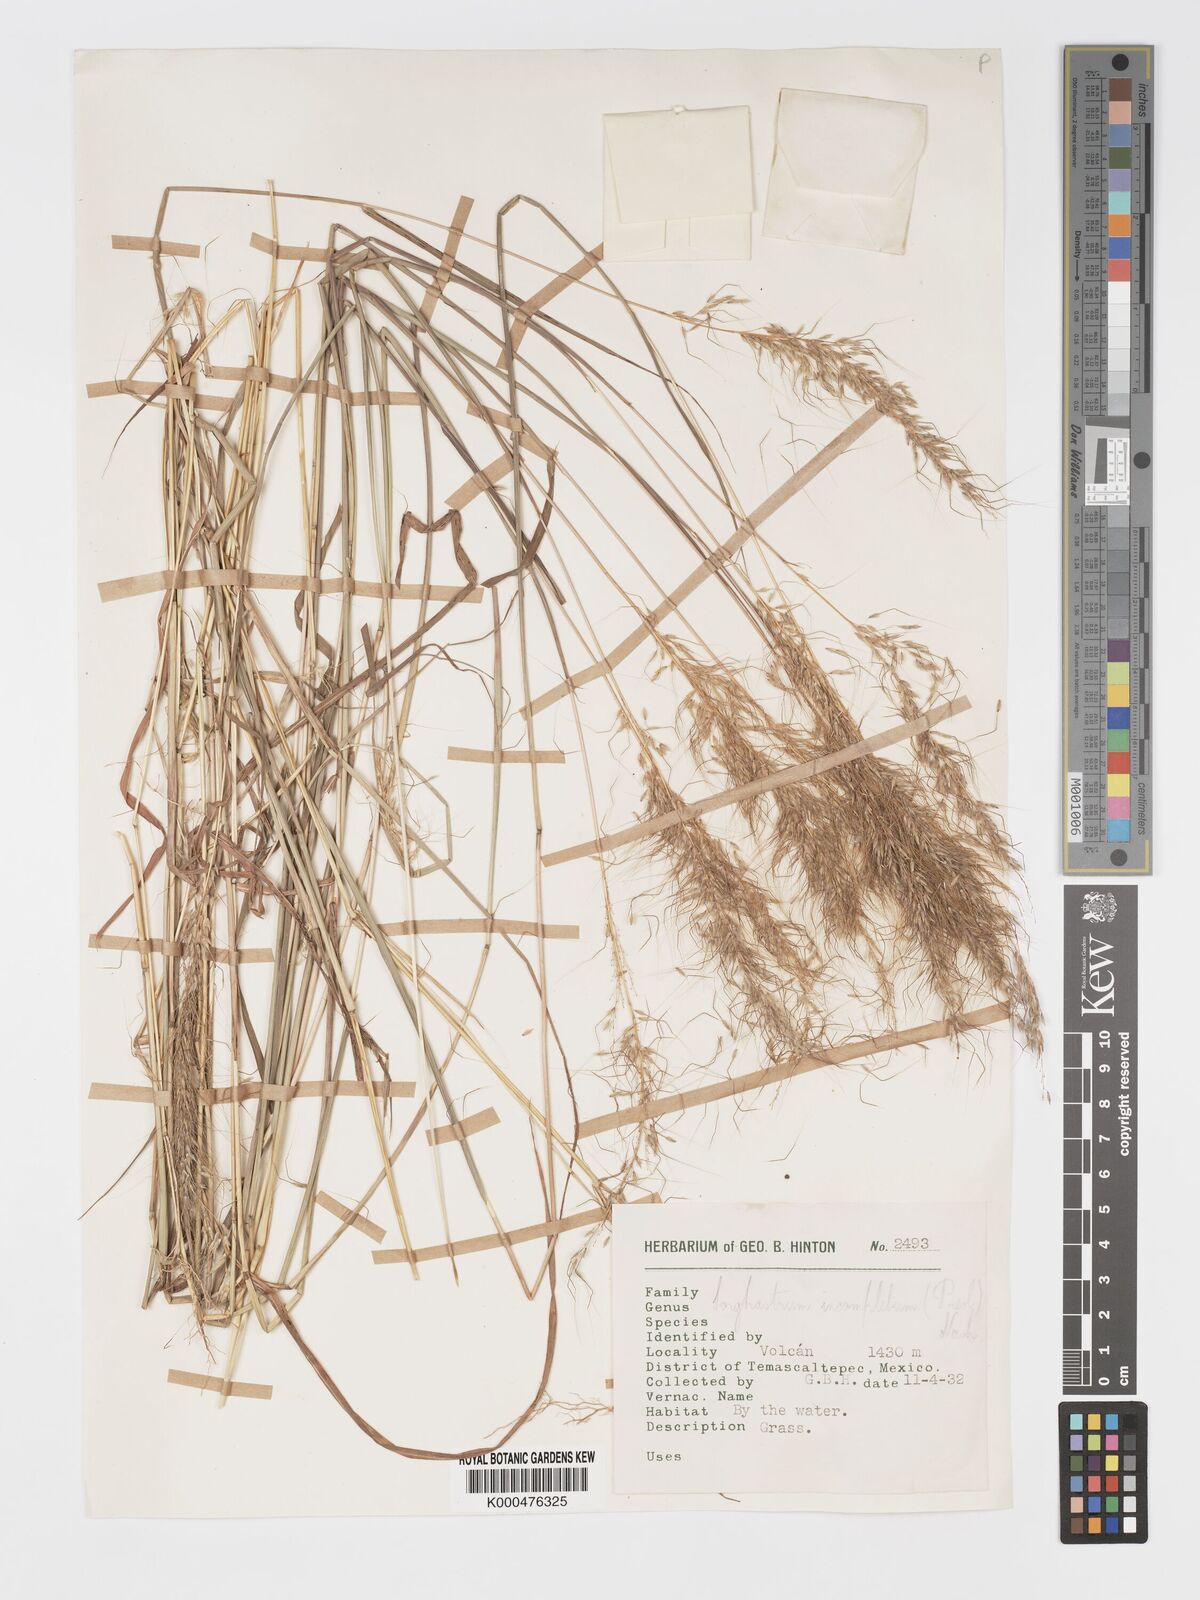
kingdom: Plantae
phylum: Tracheophyta
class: Liliopsida
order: Poales
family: Poaceae
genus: Sorghastrum
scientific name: Sorghastrum incompletum
